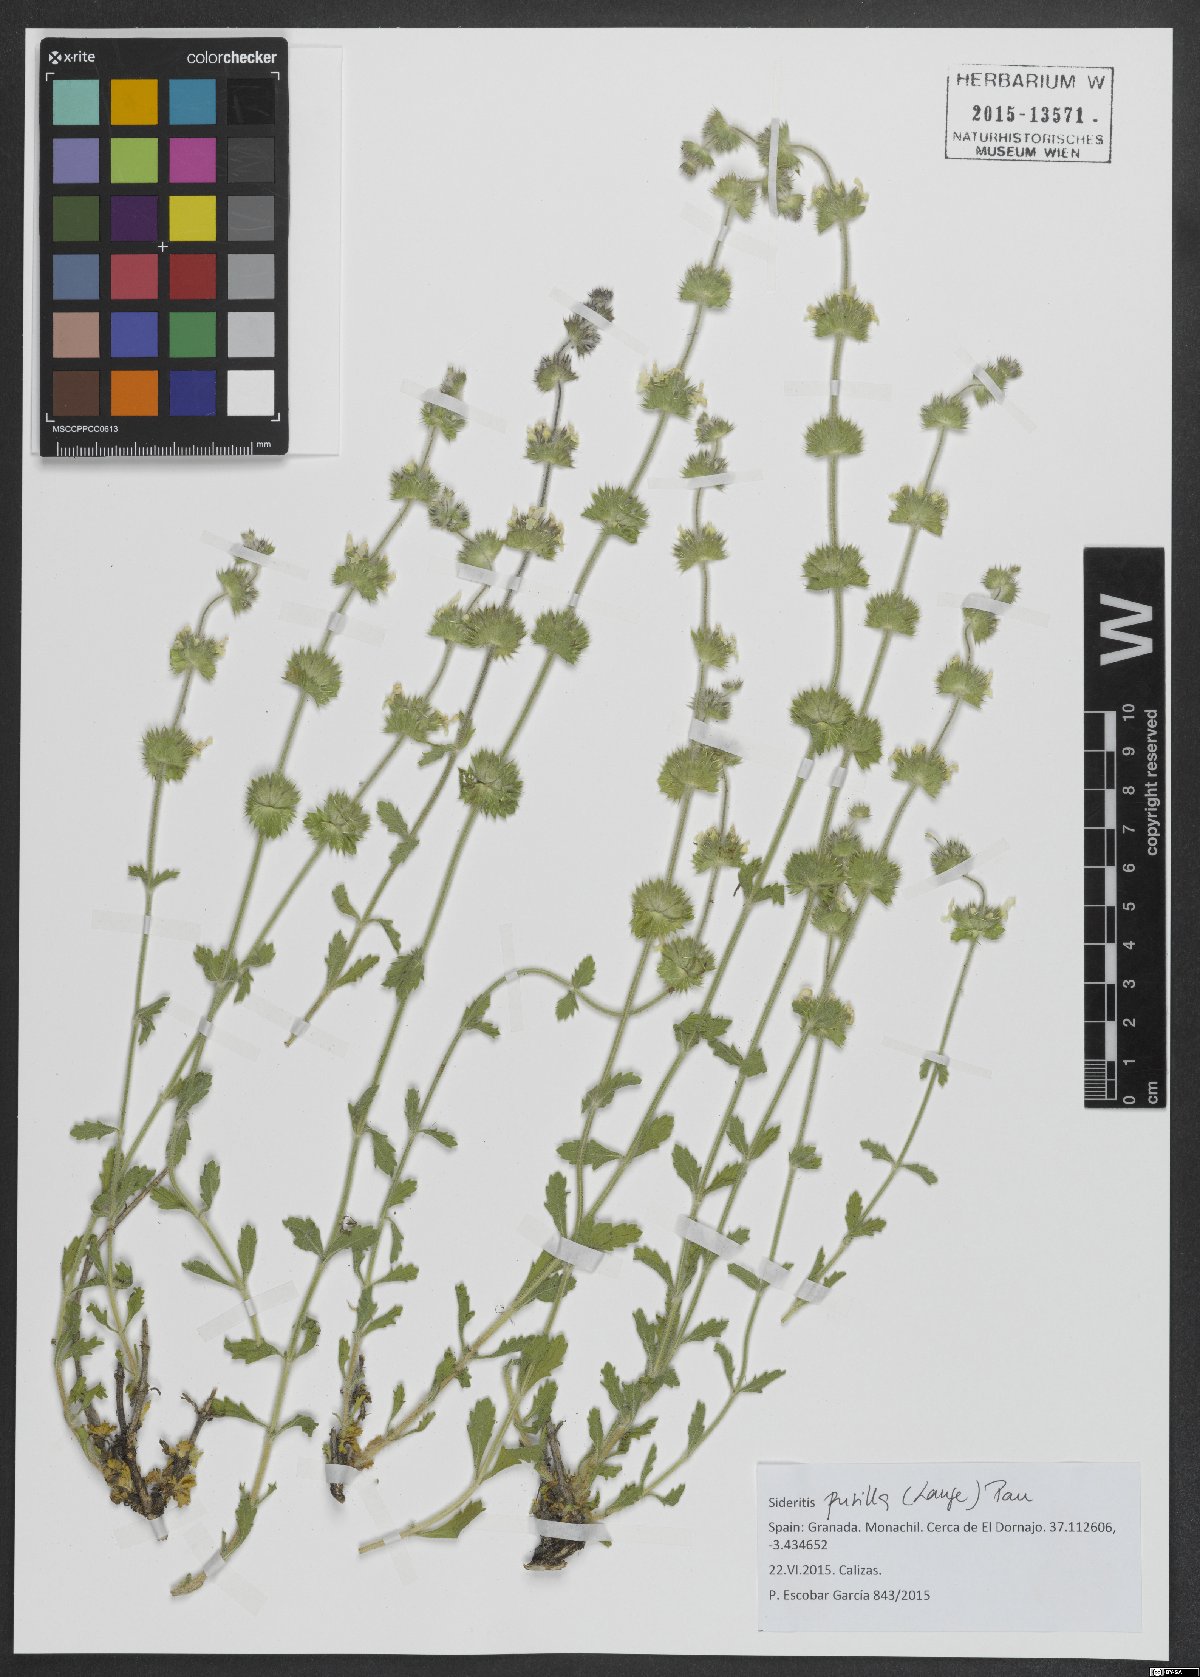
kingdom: Plantae
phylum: Tracheophyta
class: Magnoliopsida
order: Lamiales
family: Lamiaceae
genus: Sideritis
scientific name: Sideritis pusilla
